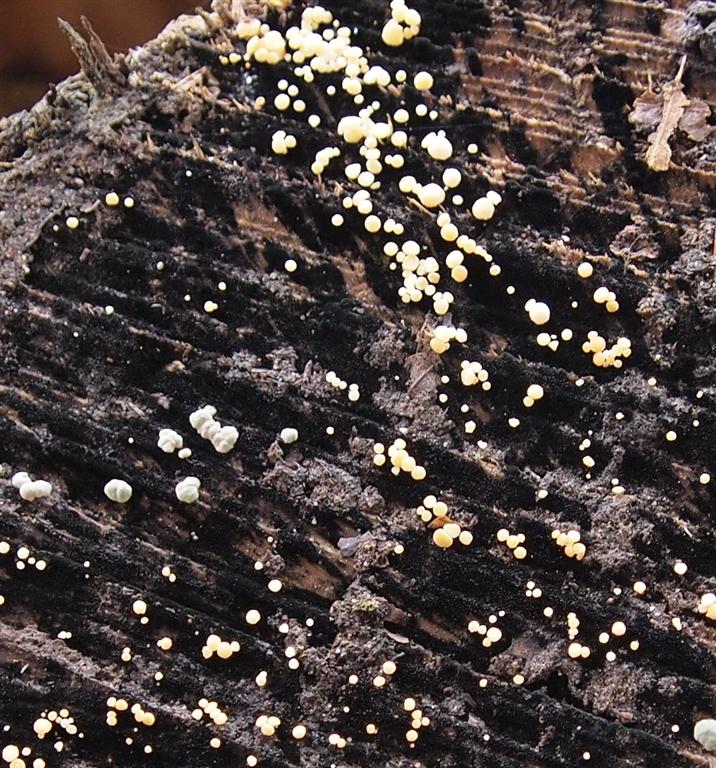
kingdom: Fungi
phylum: Ascomycota
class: Leotiomycetes
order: Helotiales
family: Helotiaceae
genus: Bispora
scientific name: Bispora pallescens
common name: måtte-snitskive
